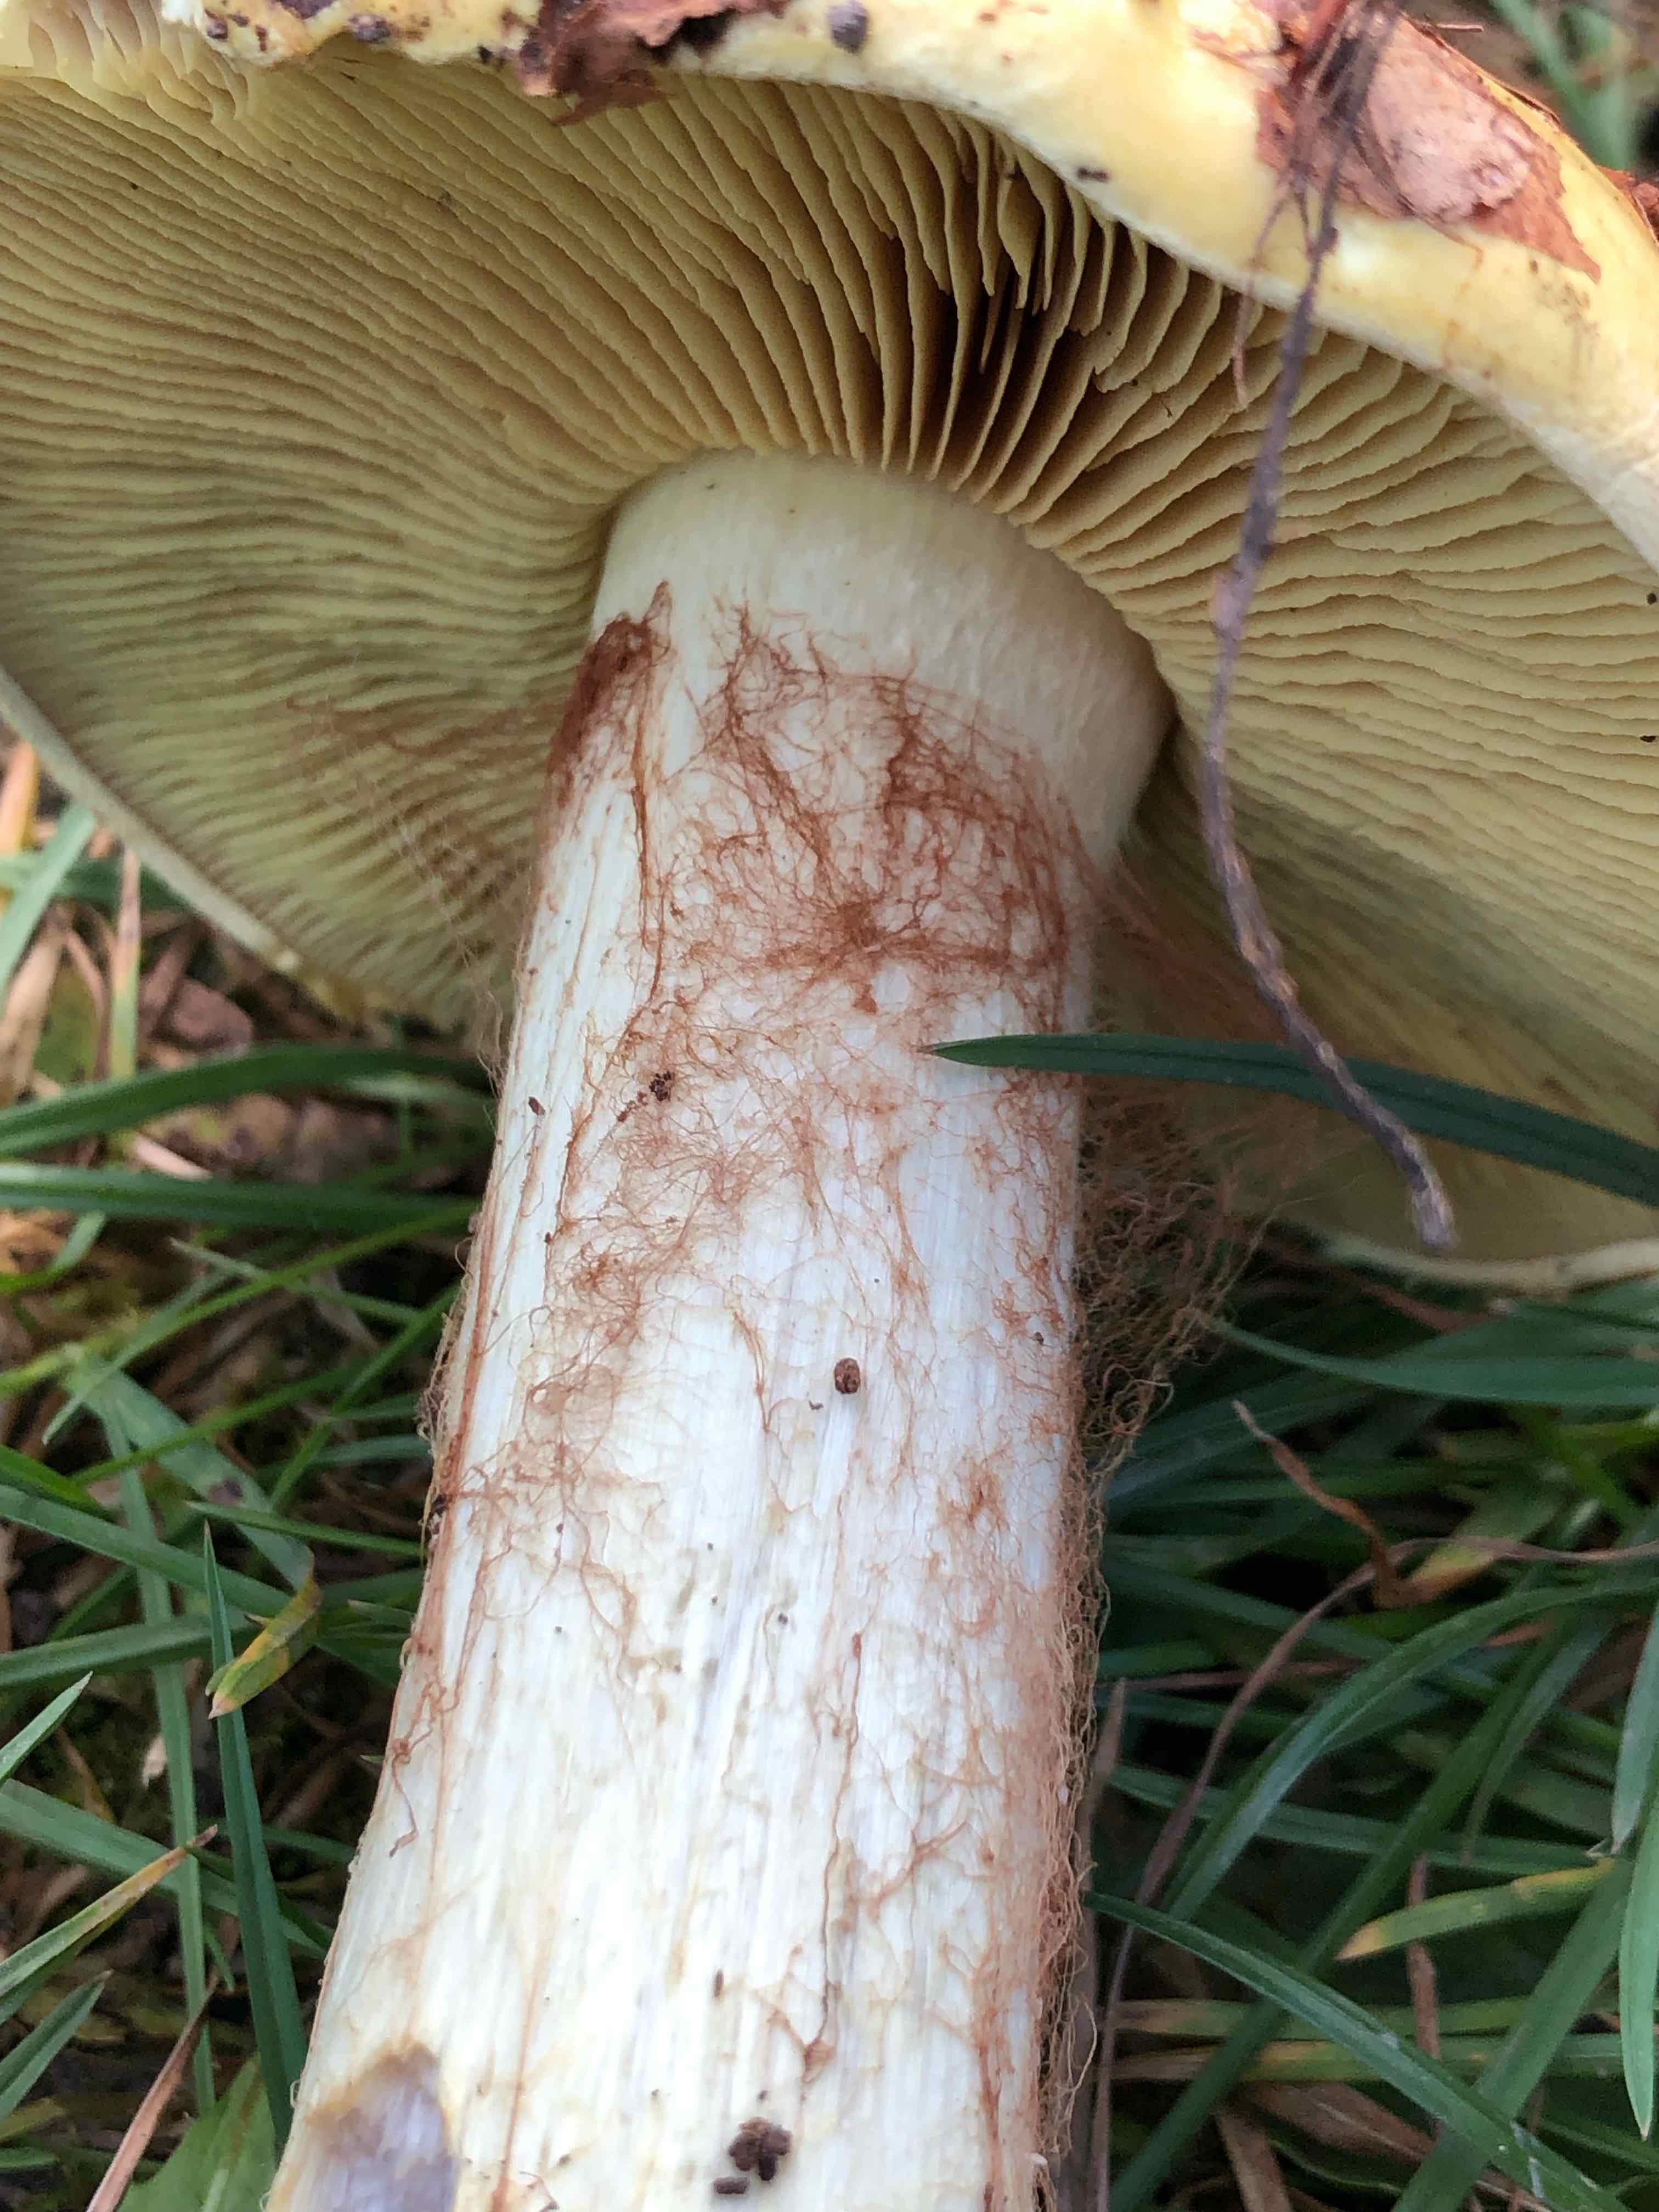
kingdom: Fungi
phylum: Basidiomycota
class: Agaricomycetes
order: Agaricales
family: Cortinariaceae
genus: Calonarius
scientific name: Calonarius elegantissimus
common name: orangegylden slørhat
